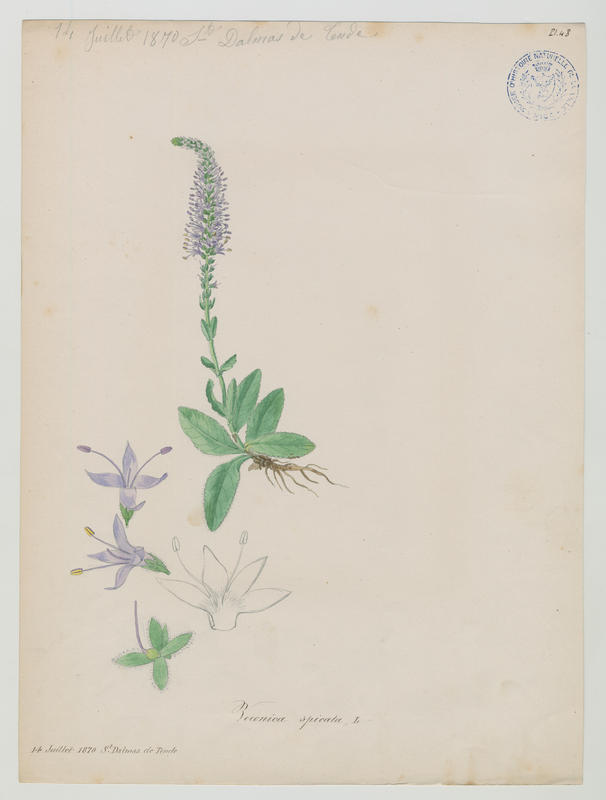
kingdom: Plantae
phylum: Tracheophyta
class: Magnoliopsida
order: Lamiales
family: Plantaginaceae
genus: Veronica
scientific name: Veronica spicata
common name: Spiked speedwell
